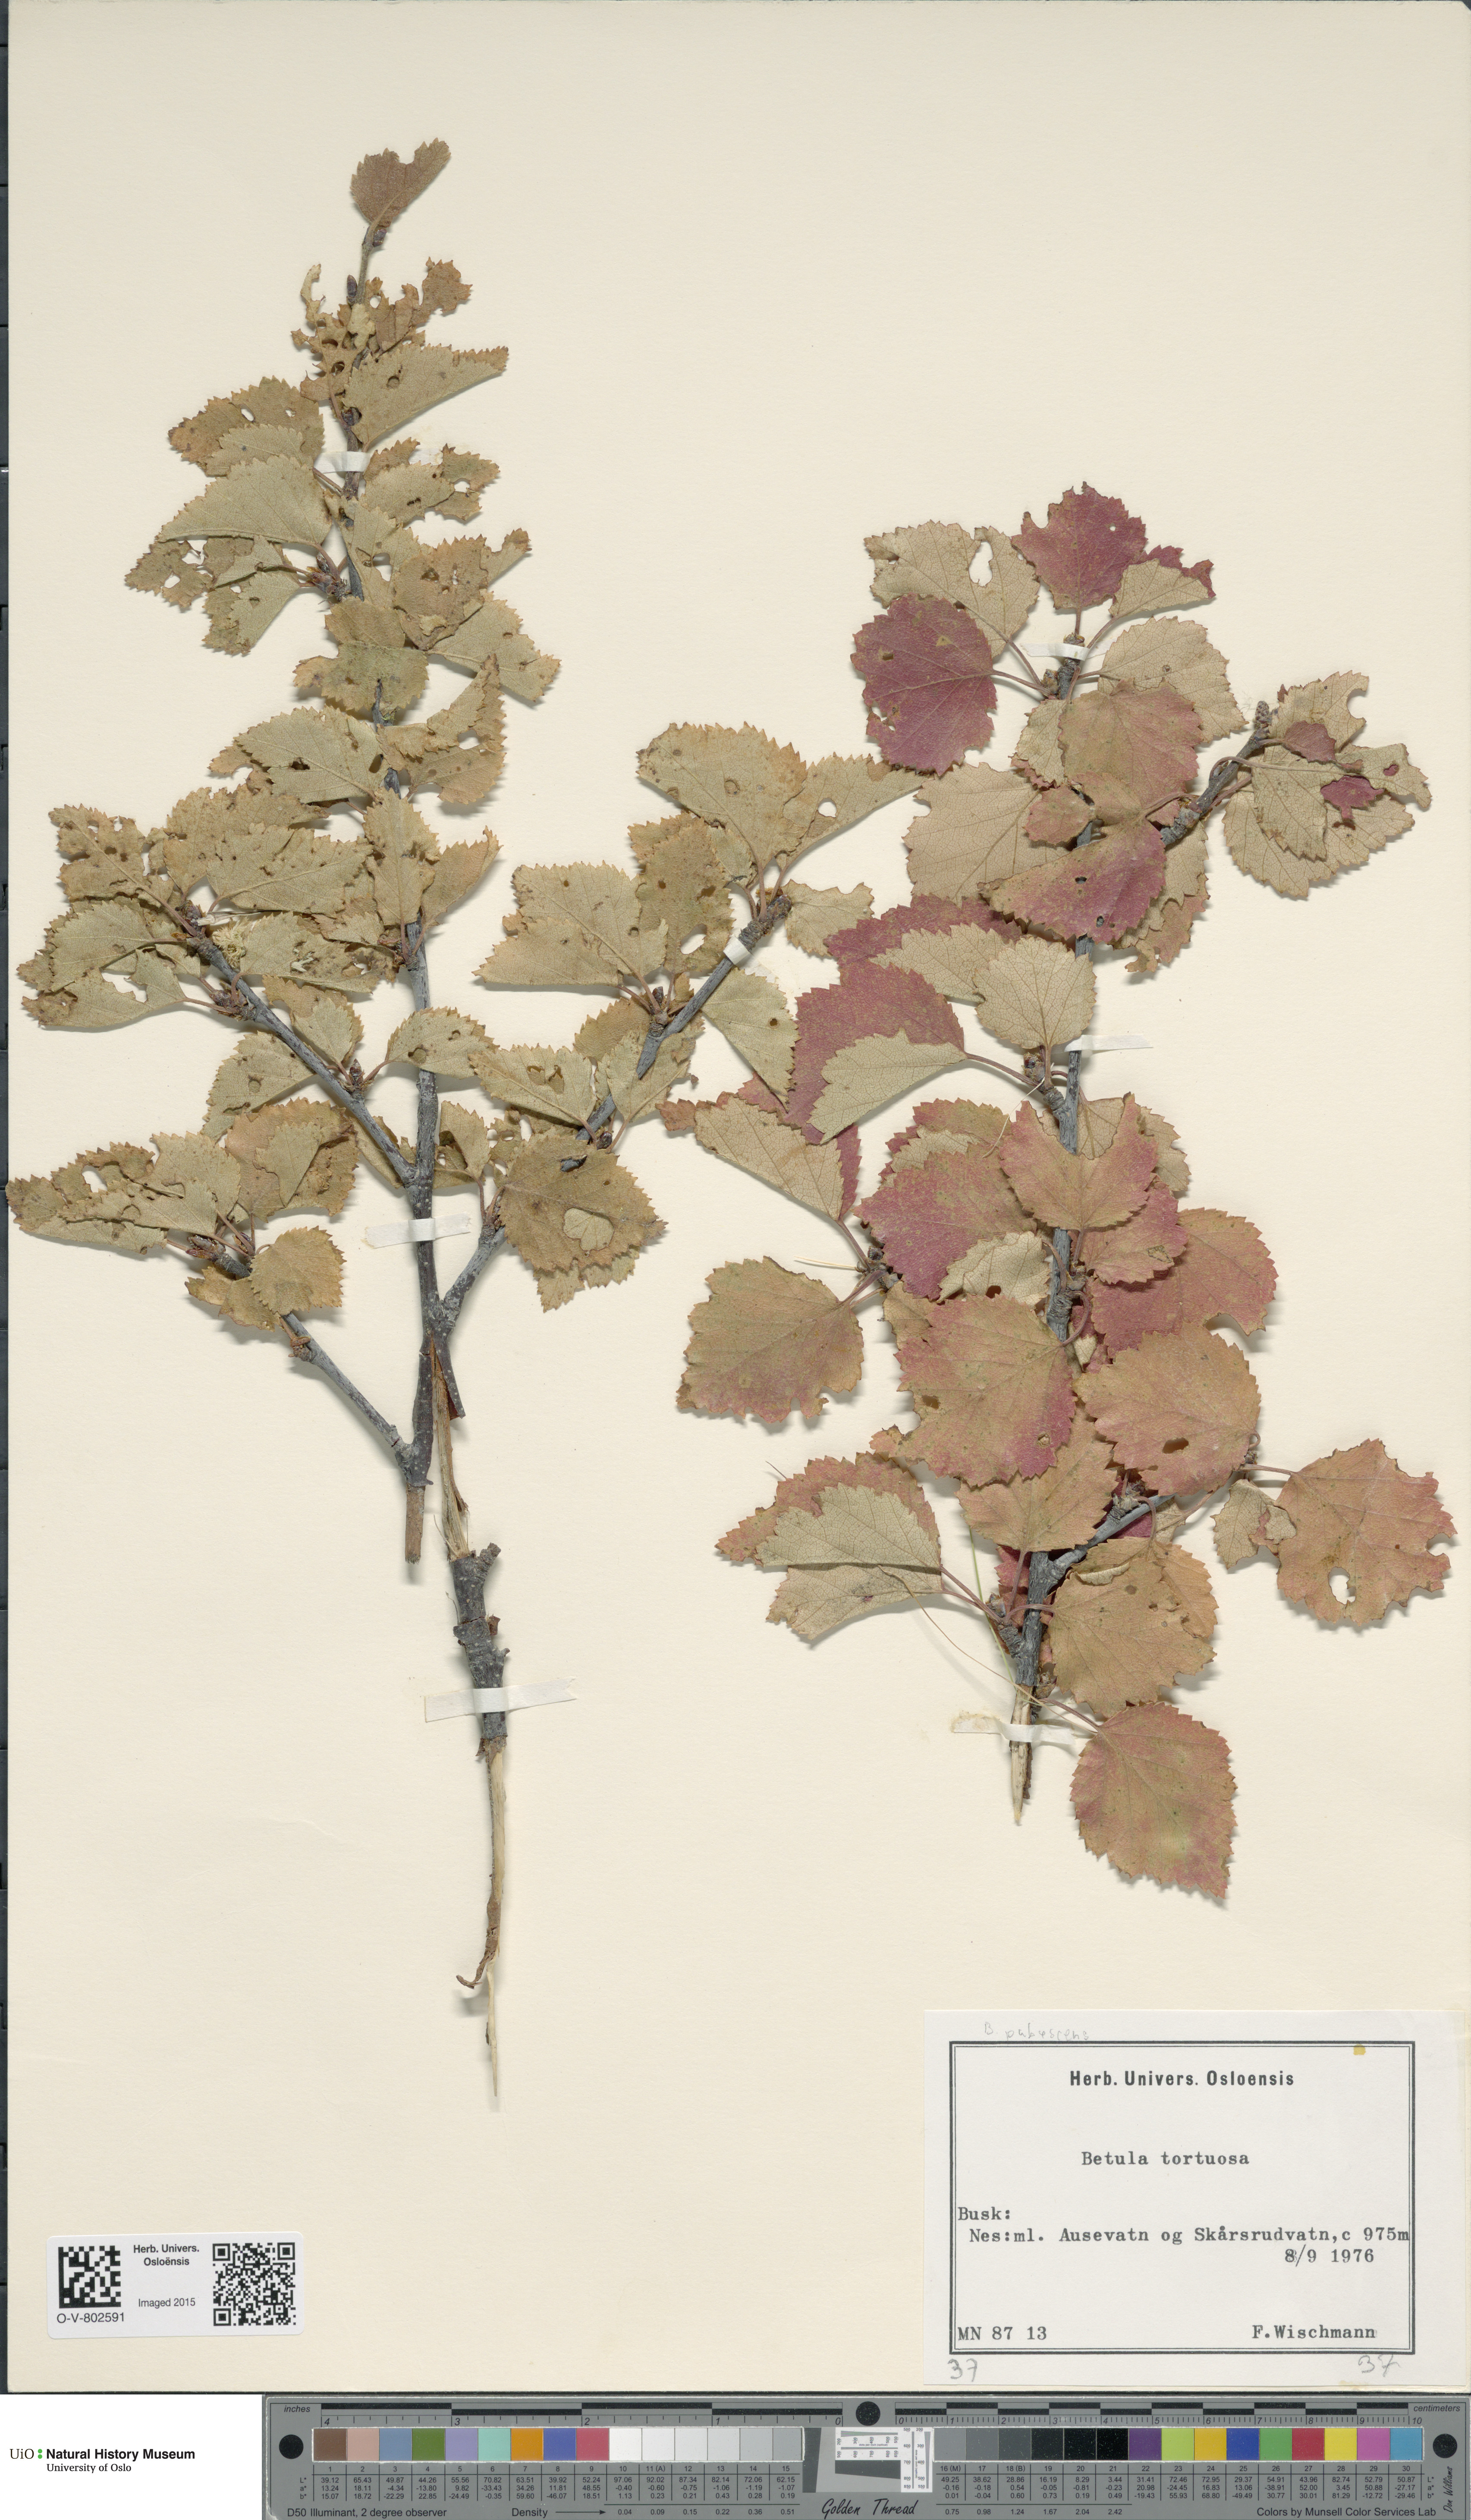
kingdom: Plantae
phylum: Tracheophyta
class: Magnoliopsida
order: Fagales
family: Betulaceae
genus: Betula
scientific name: Betula pubescens
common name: Downy birch
